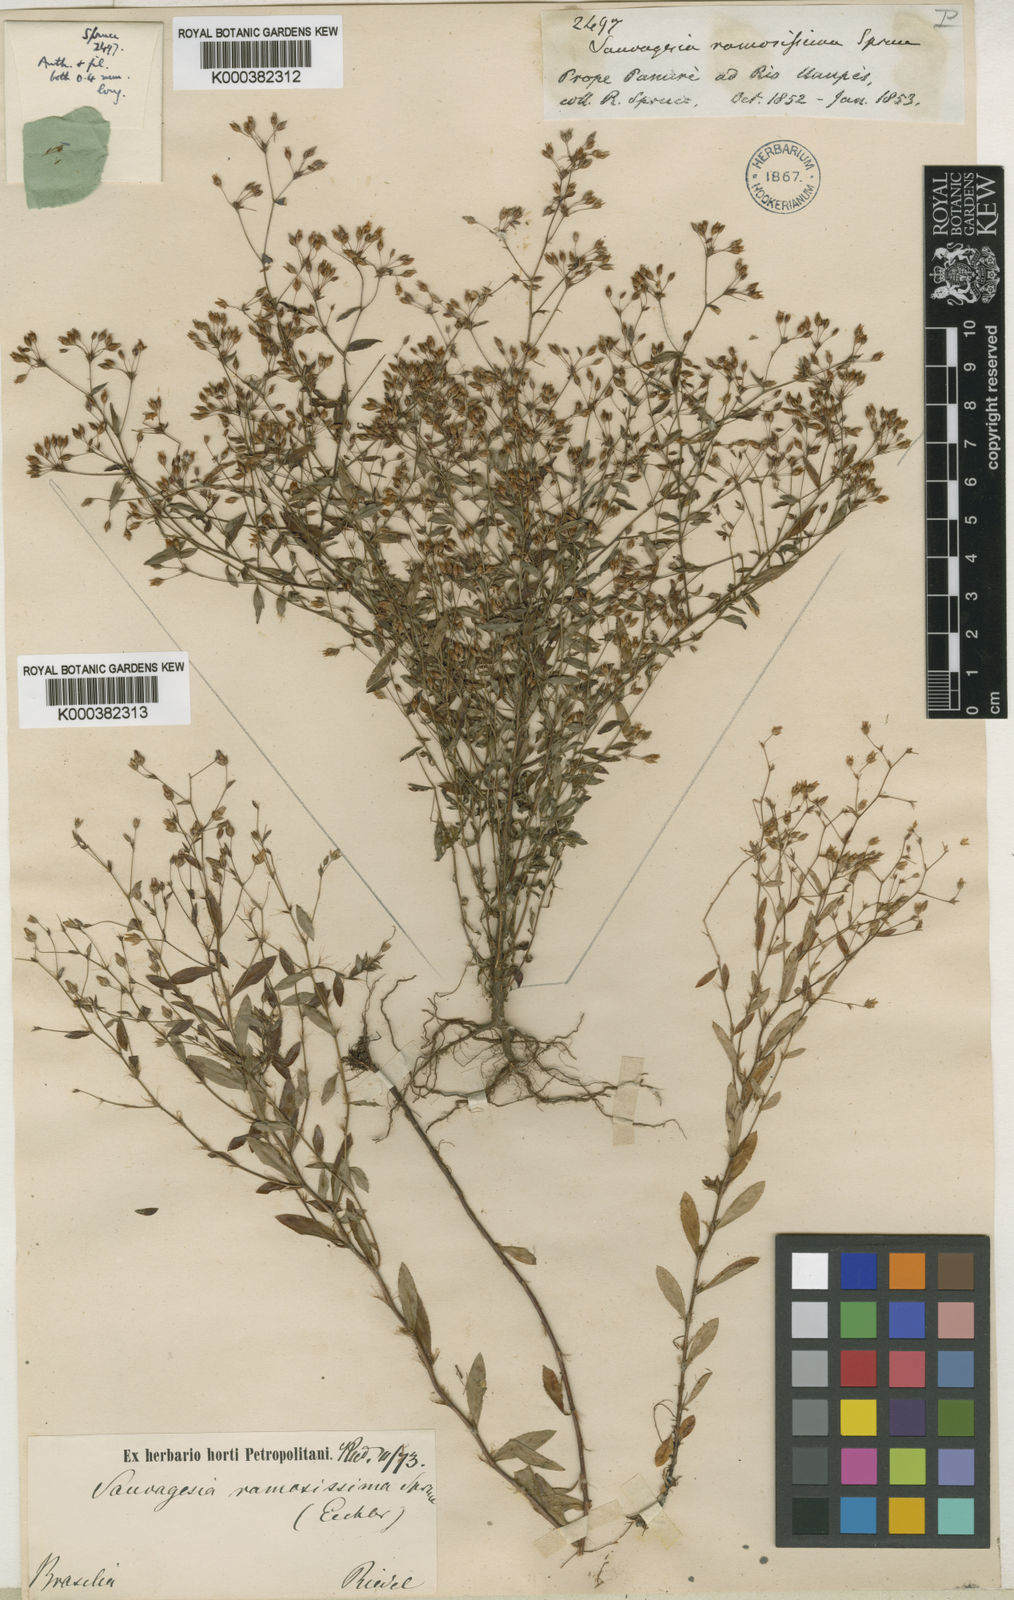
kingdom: Plantae
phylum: Tracheophyta
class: Magnoliopsida
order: Malpighiales
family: Ochnaceae
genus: Sauvagesia
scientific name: Sauvagesia ramosissima
